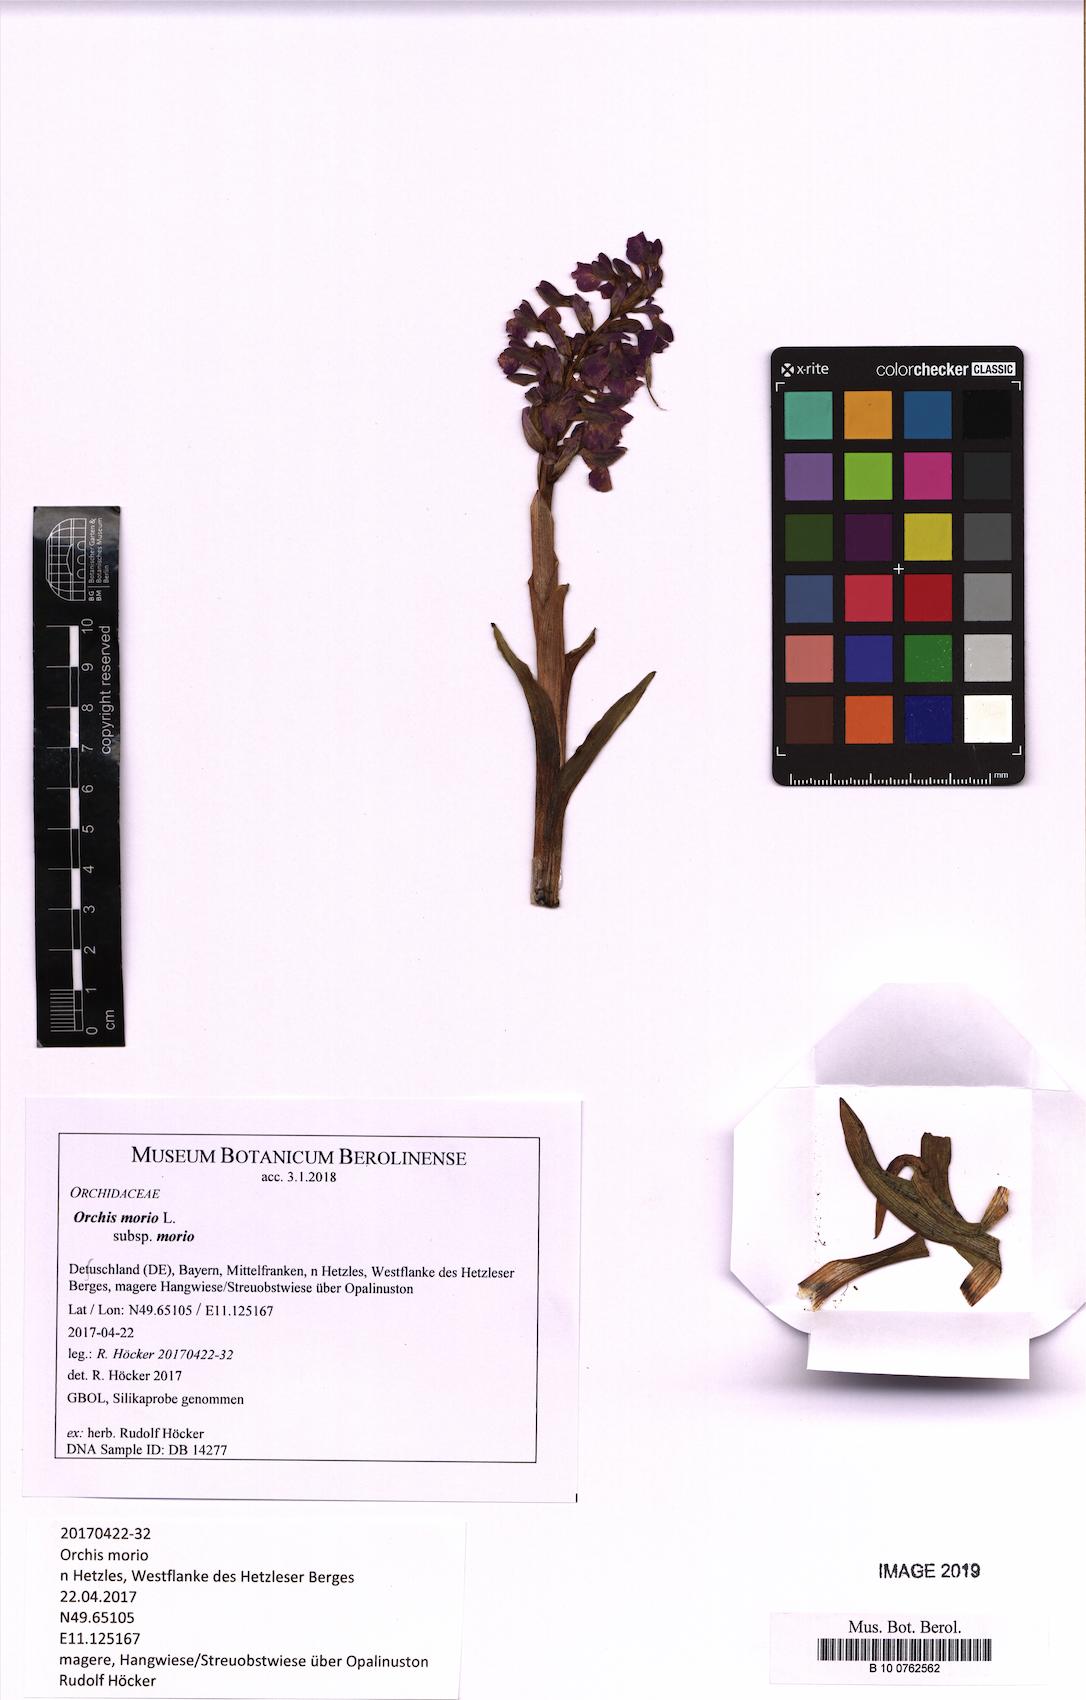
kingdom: Plantae
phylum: Tracheophyta
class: Liliopsida
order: Asparagales
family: Orchidaceae
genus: Anacamptis
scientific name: Anacamptis morio
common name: Green-winged orchid
